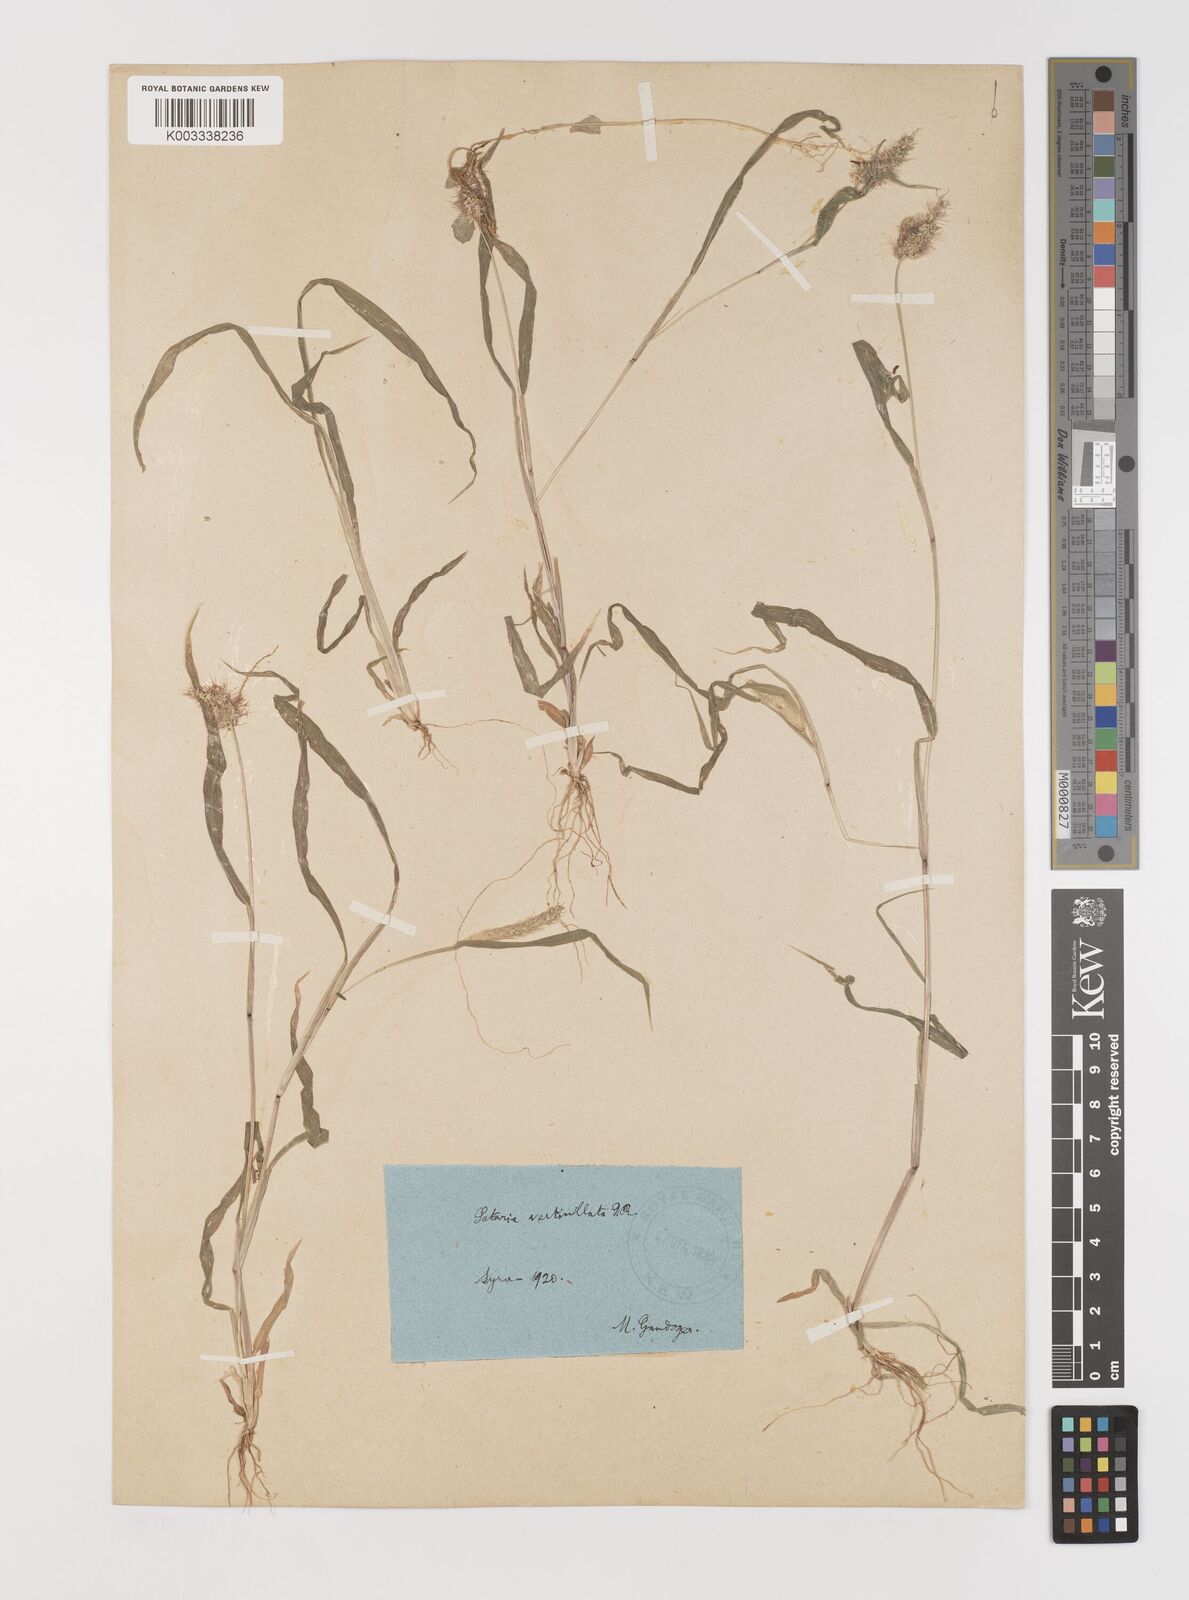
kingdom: Plantae
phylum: Tracheophyta
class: Liliopsida
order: Poales
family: Poaceae
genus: Setaria
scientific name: Setaria verticillata
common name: Hooked bristlegrass
